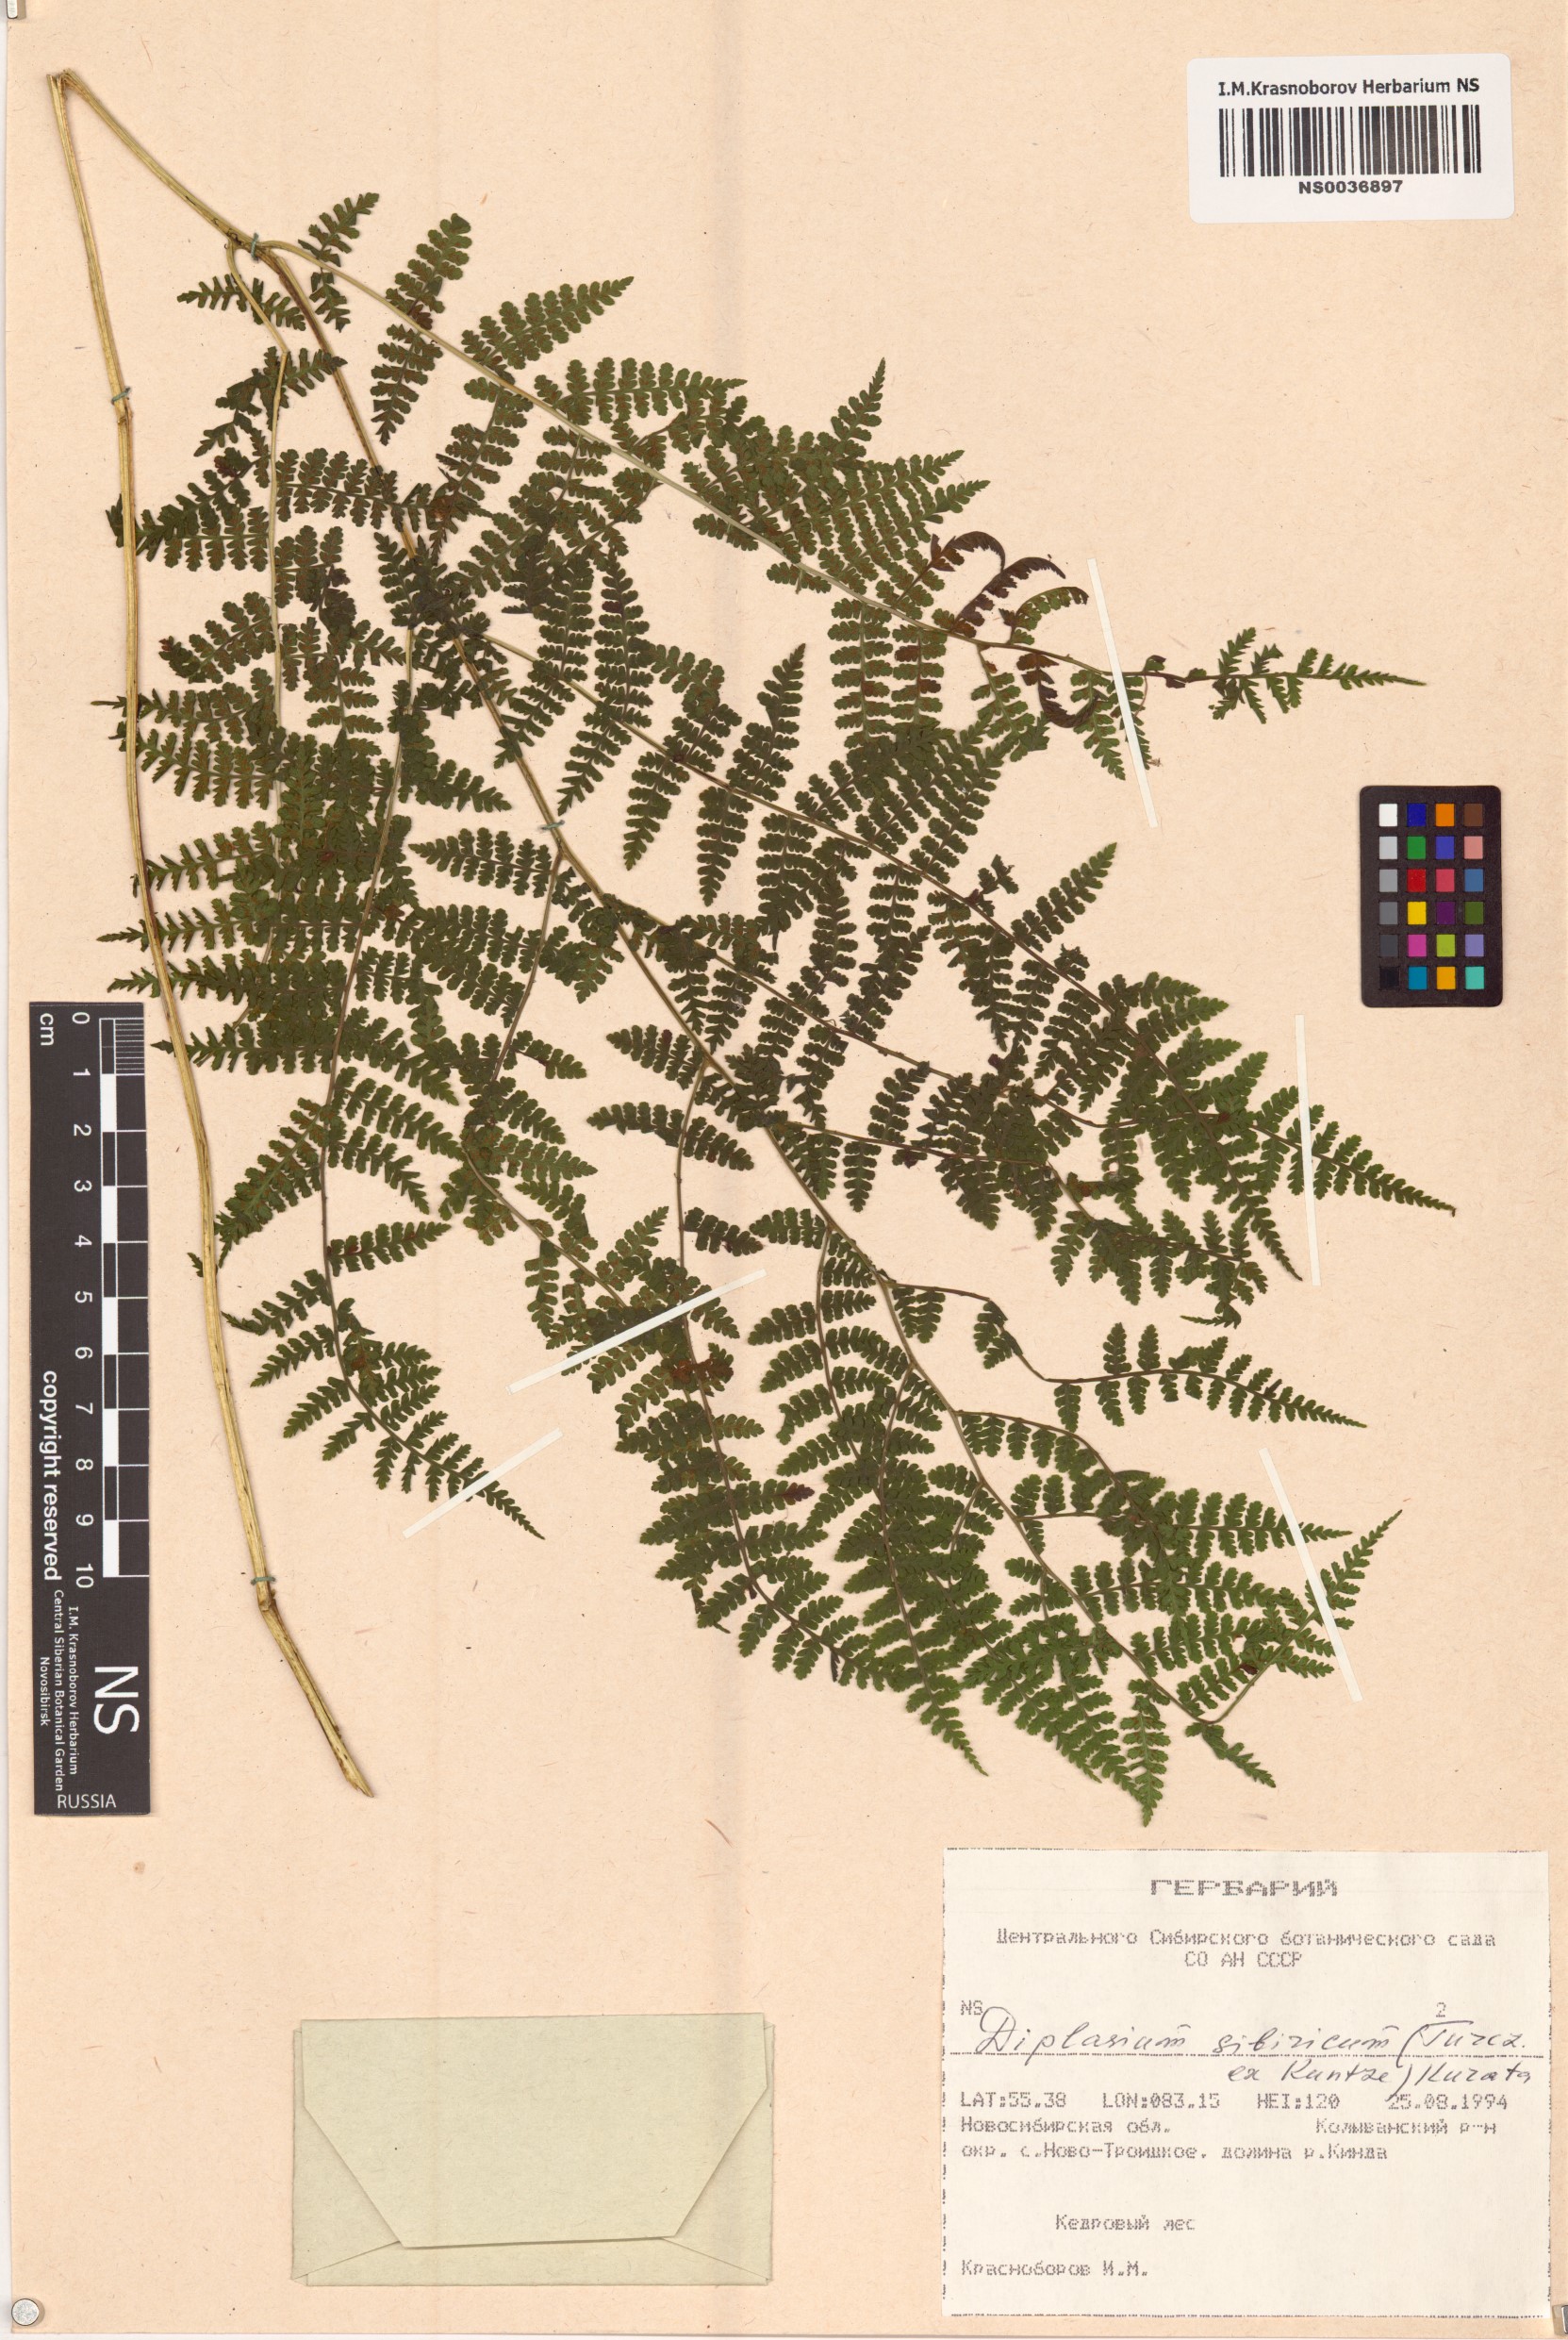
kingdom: Plantae
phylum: Tracheophyta
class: Polypodiopsida
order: Polypodiales
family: Athyriaceae
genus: Diplazium
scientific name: Diplazium sibiricum
